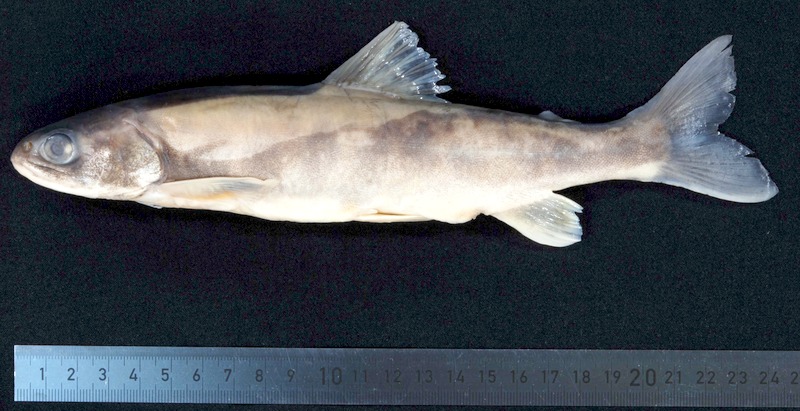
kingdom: Animalia
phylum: Chordata
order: Salmoniformes
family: Salmonidae
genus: Salvelinus
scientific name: Salvelinus
